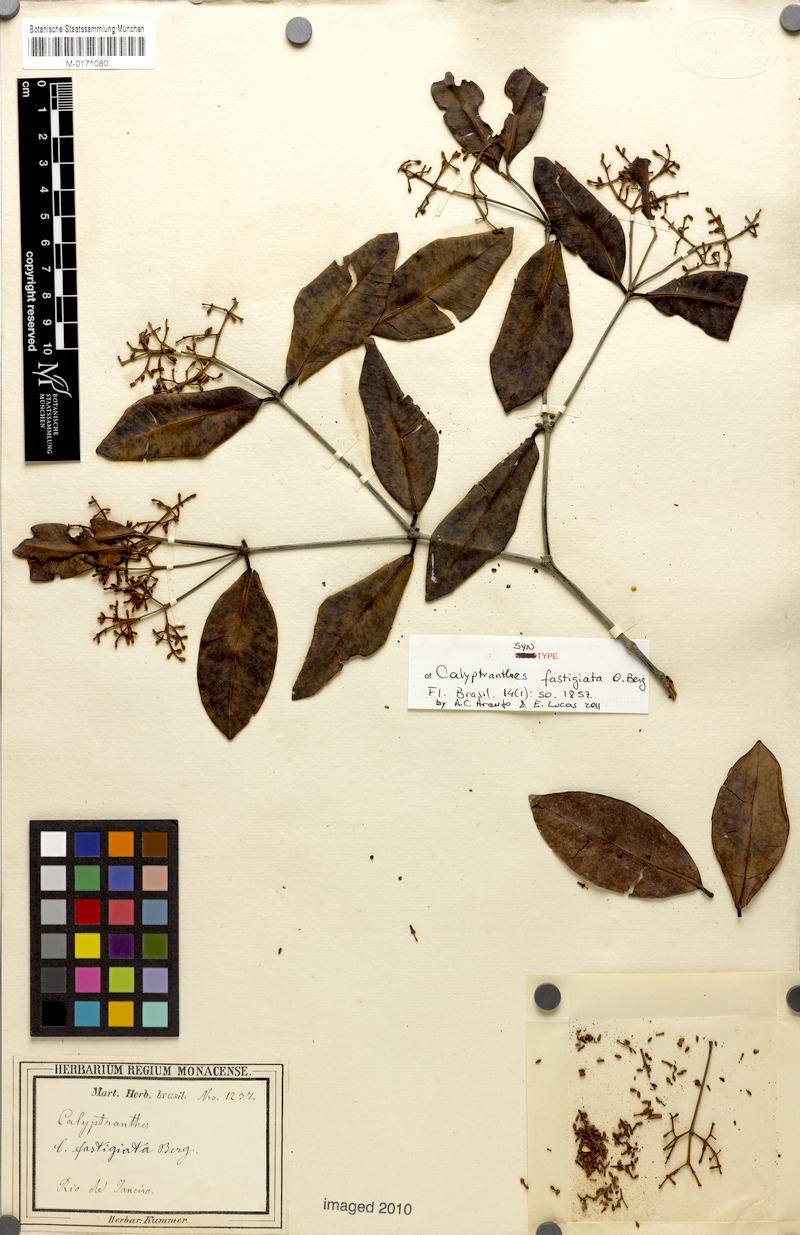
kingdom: Plantae
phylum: Tracheophyta
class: Magnoliopsida
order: Myrtales
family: Myrtaceae
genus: Syzygium
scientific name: Syzygium fastigiatum
